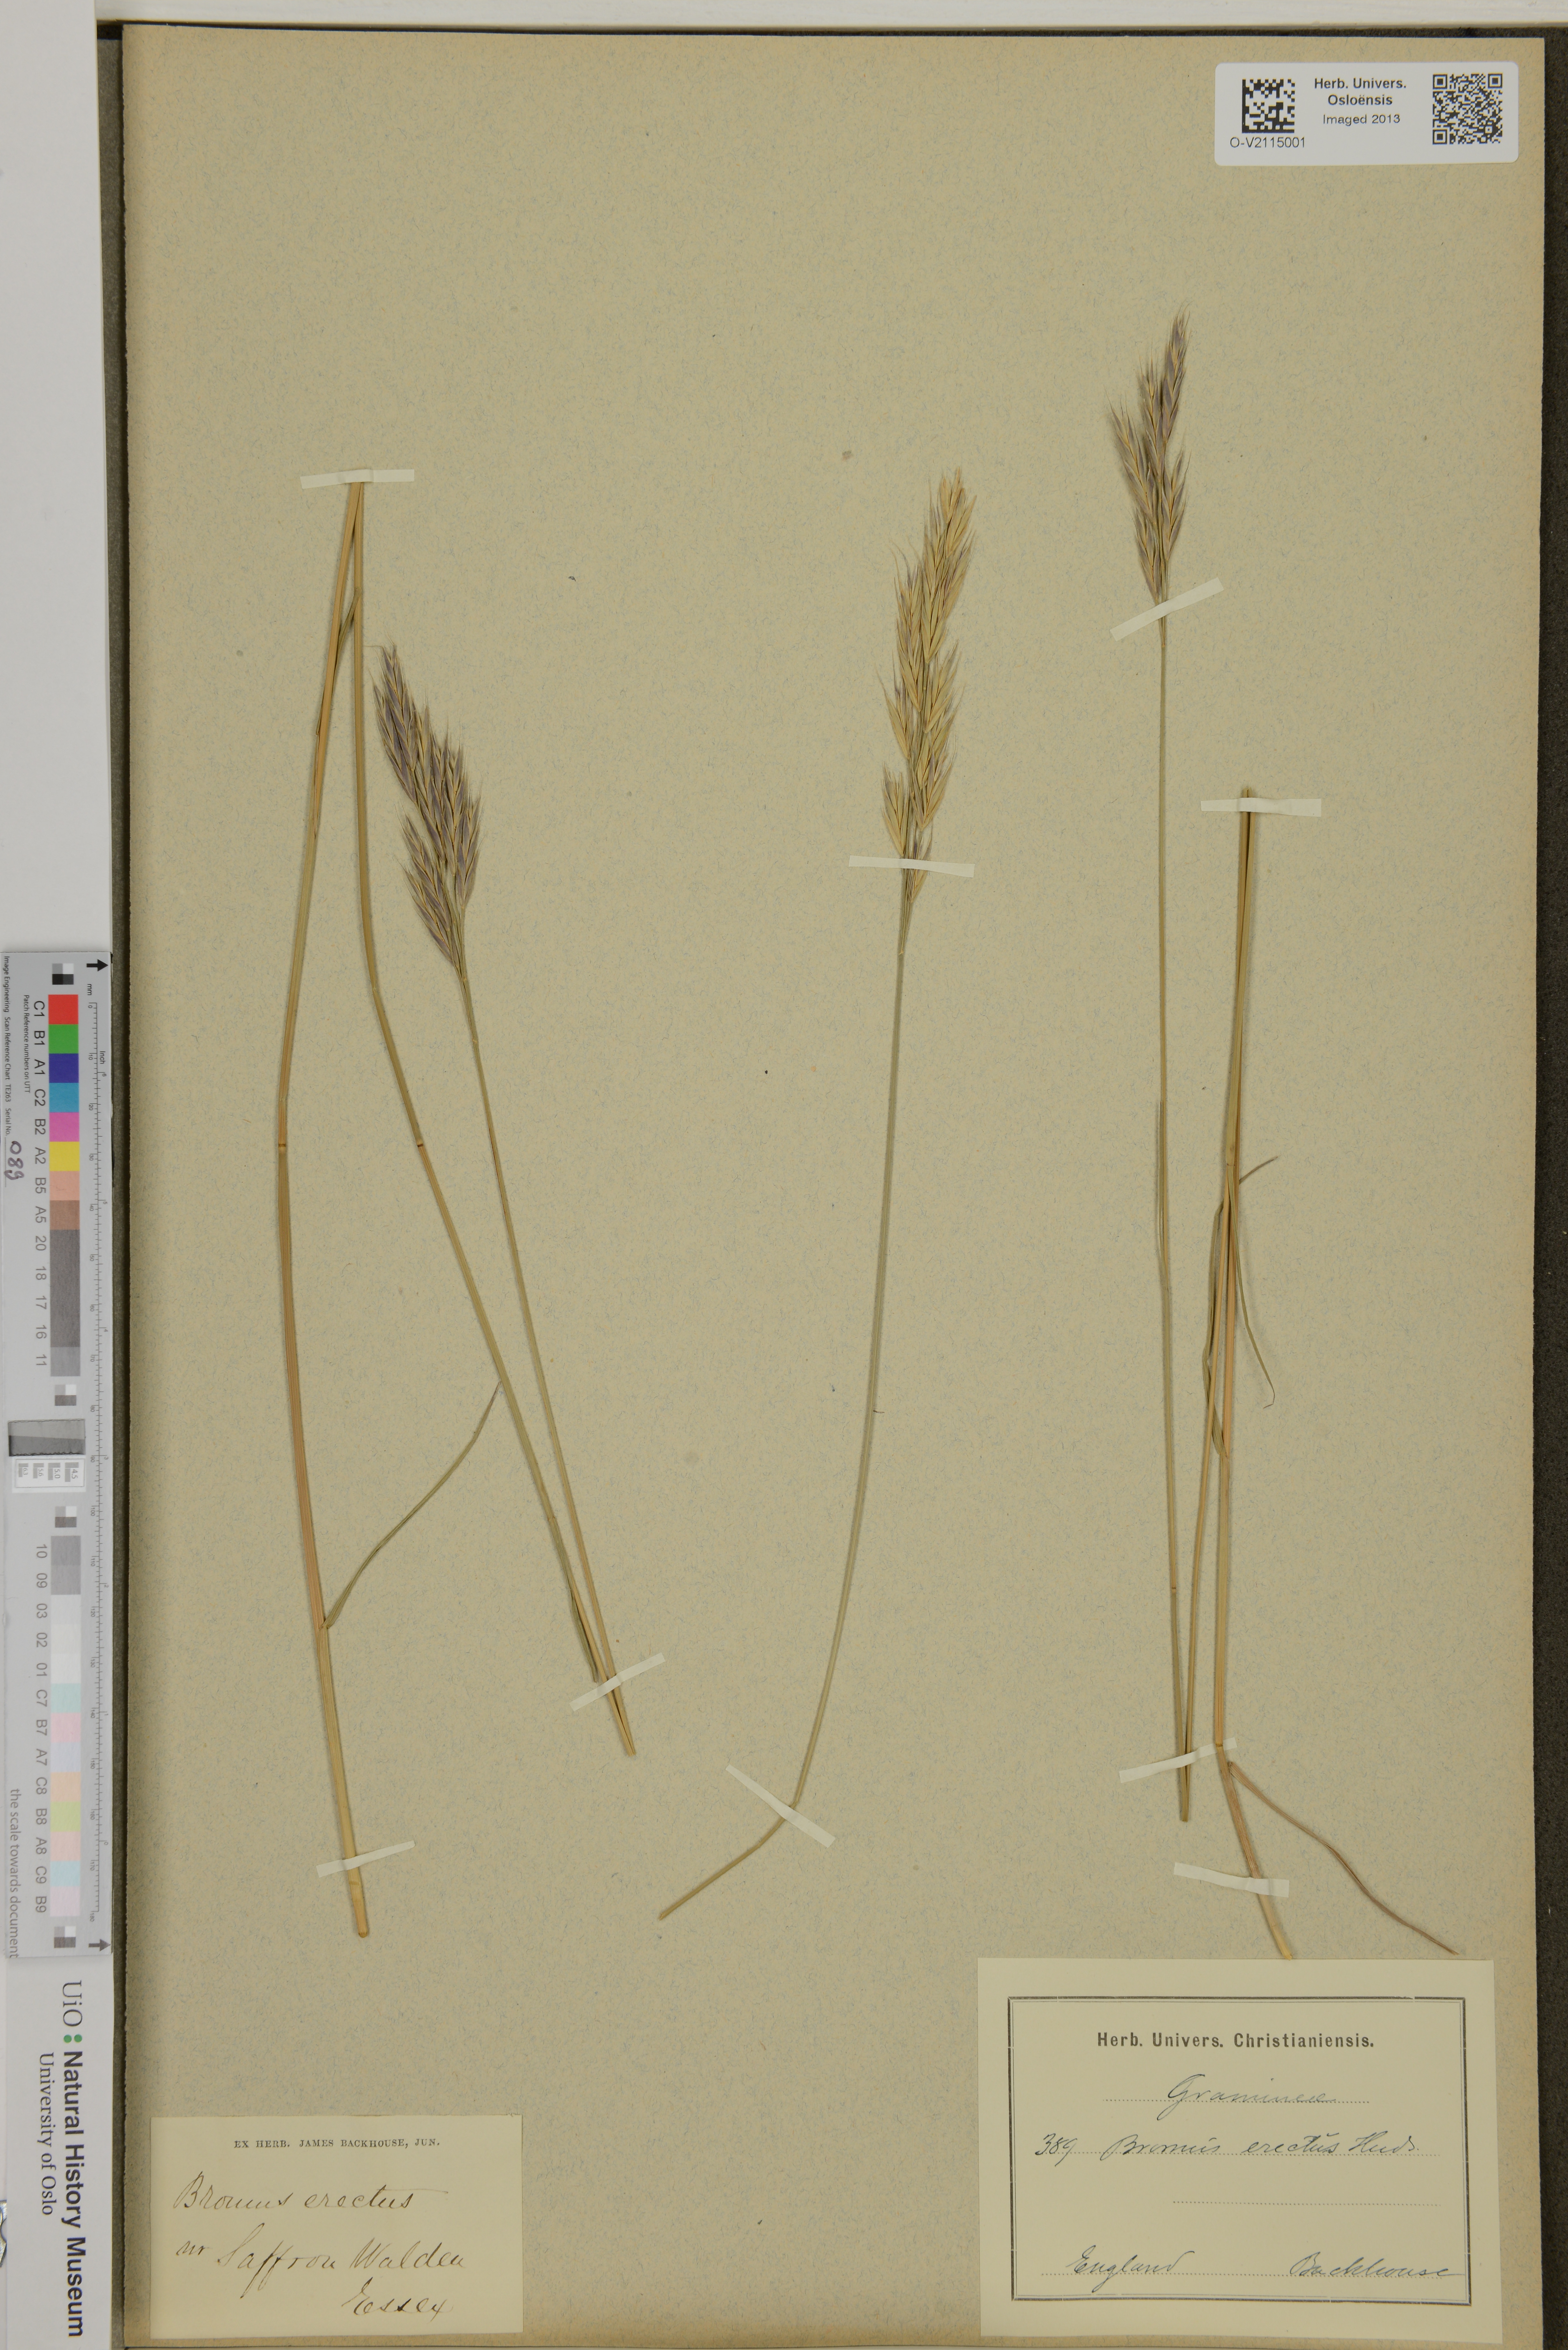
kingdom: Plantae
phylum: Tracheophyta
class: Liliopsida
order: Poales
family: Poaceae
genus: Bromus
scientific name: Bromus erectus
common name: Erect brome
